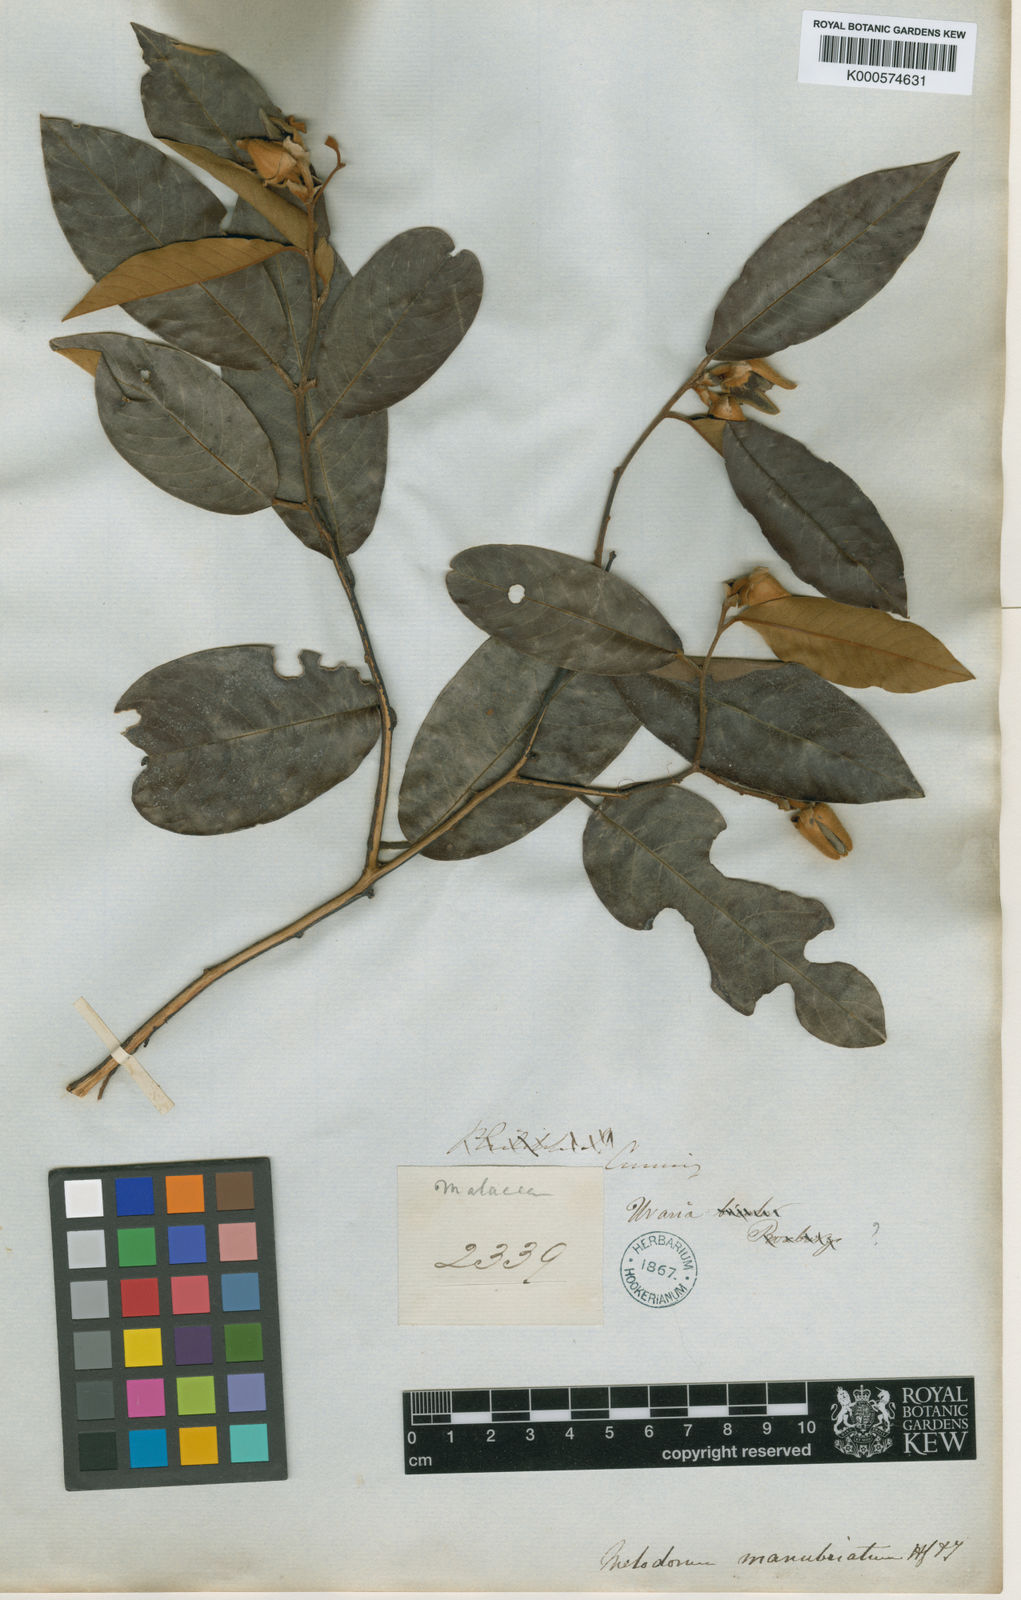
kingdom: Plantae
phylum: Tracheophyta
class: Magnoliopsida
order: Magnoliales
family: Annonaceae
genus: Fissistigma
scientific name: Fissistigma manubriatum
